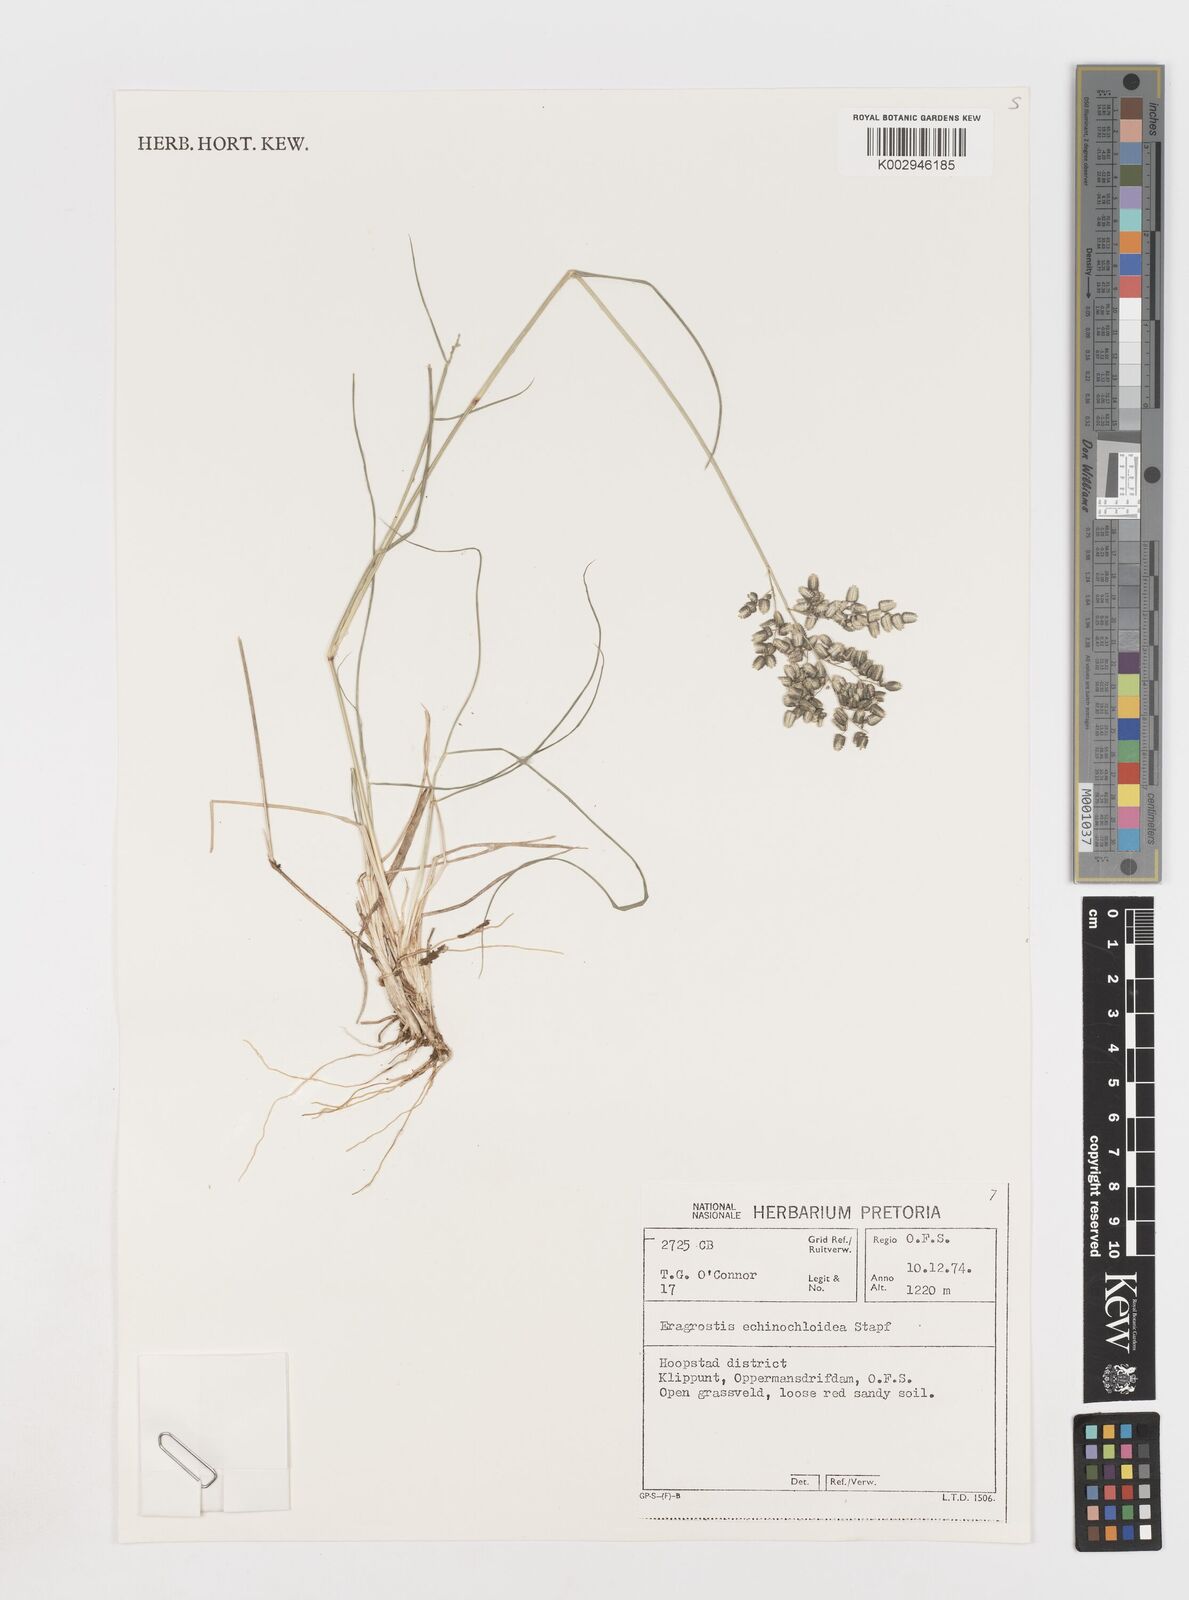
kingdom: Plantae
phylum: Tracheophyta
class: Liliopsida
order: Poales
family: Poaceae
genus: Eragrostis
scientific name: Eragrostis echinochloidea
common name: African lovegrass
